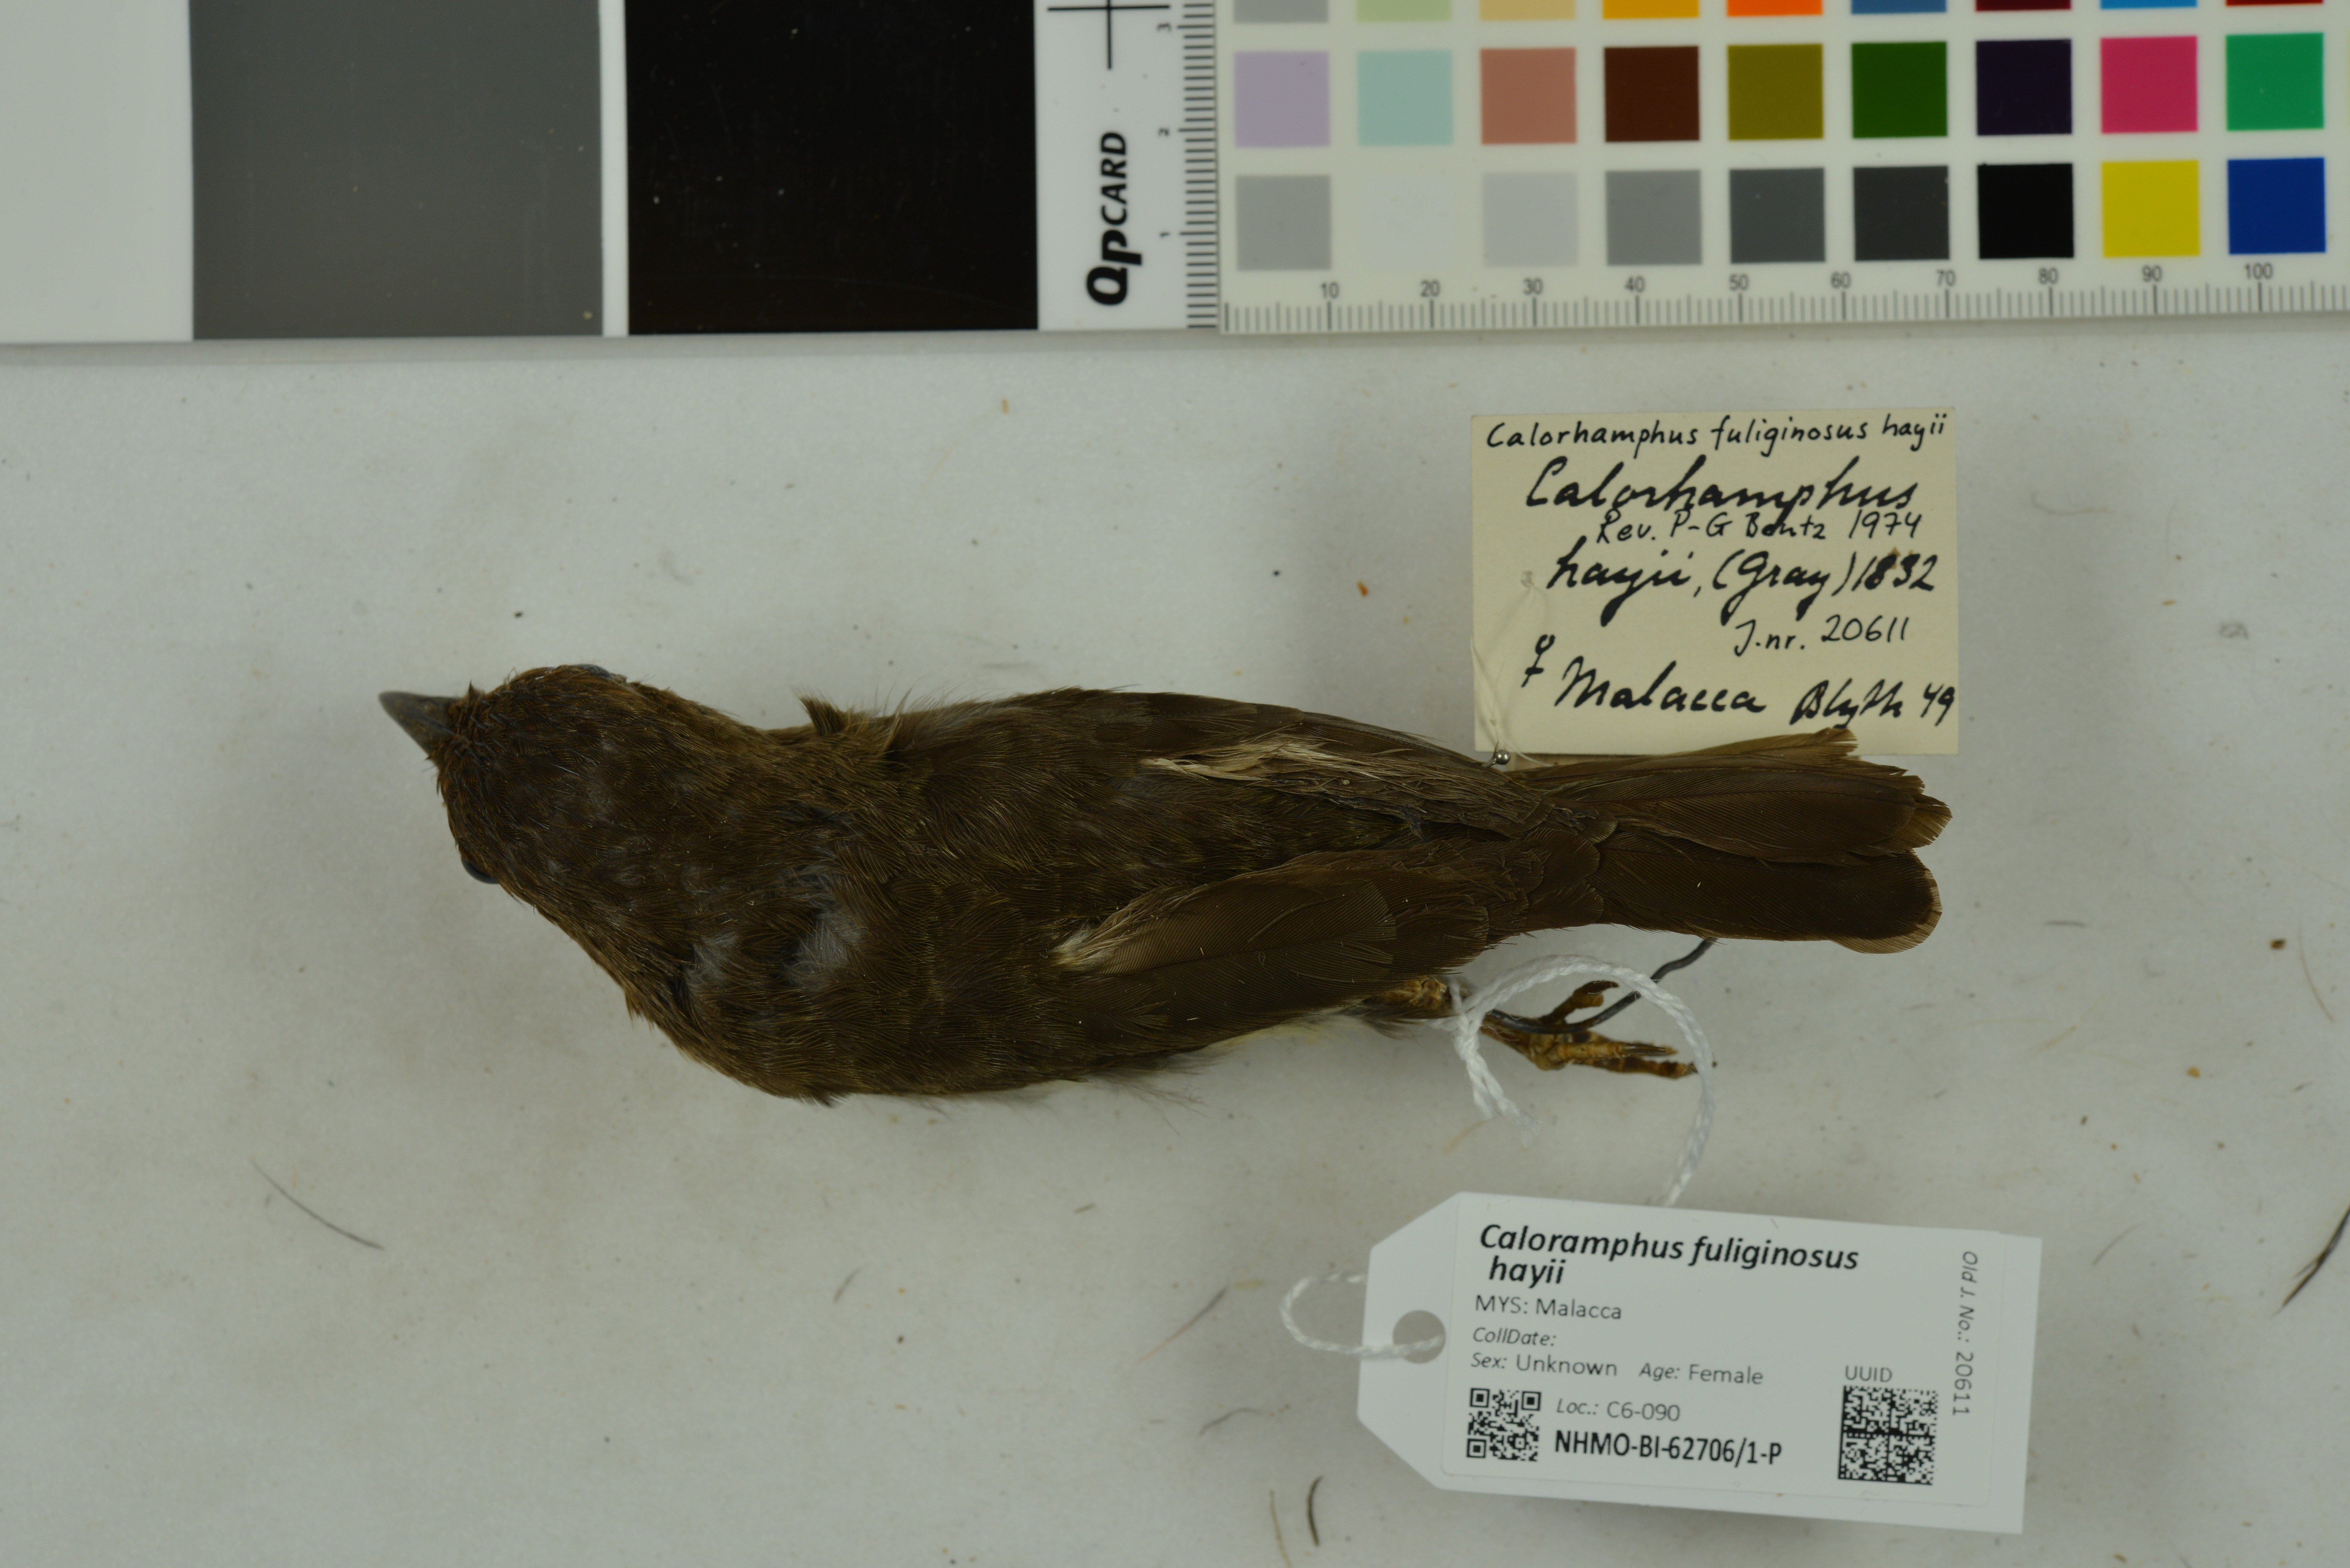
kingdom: Animalia
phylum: Chordata
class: Aves
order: Piciformes
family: Megalaimidae
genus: Caloramphus
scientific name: Caloramphus hayii
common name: Sooty barbet
